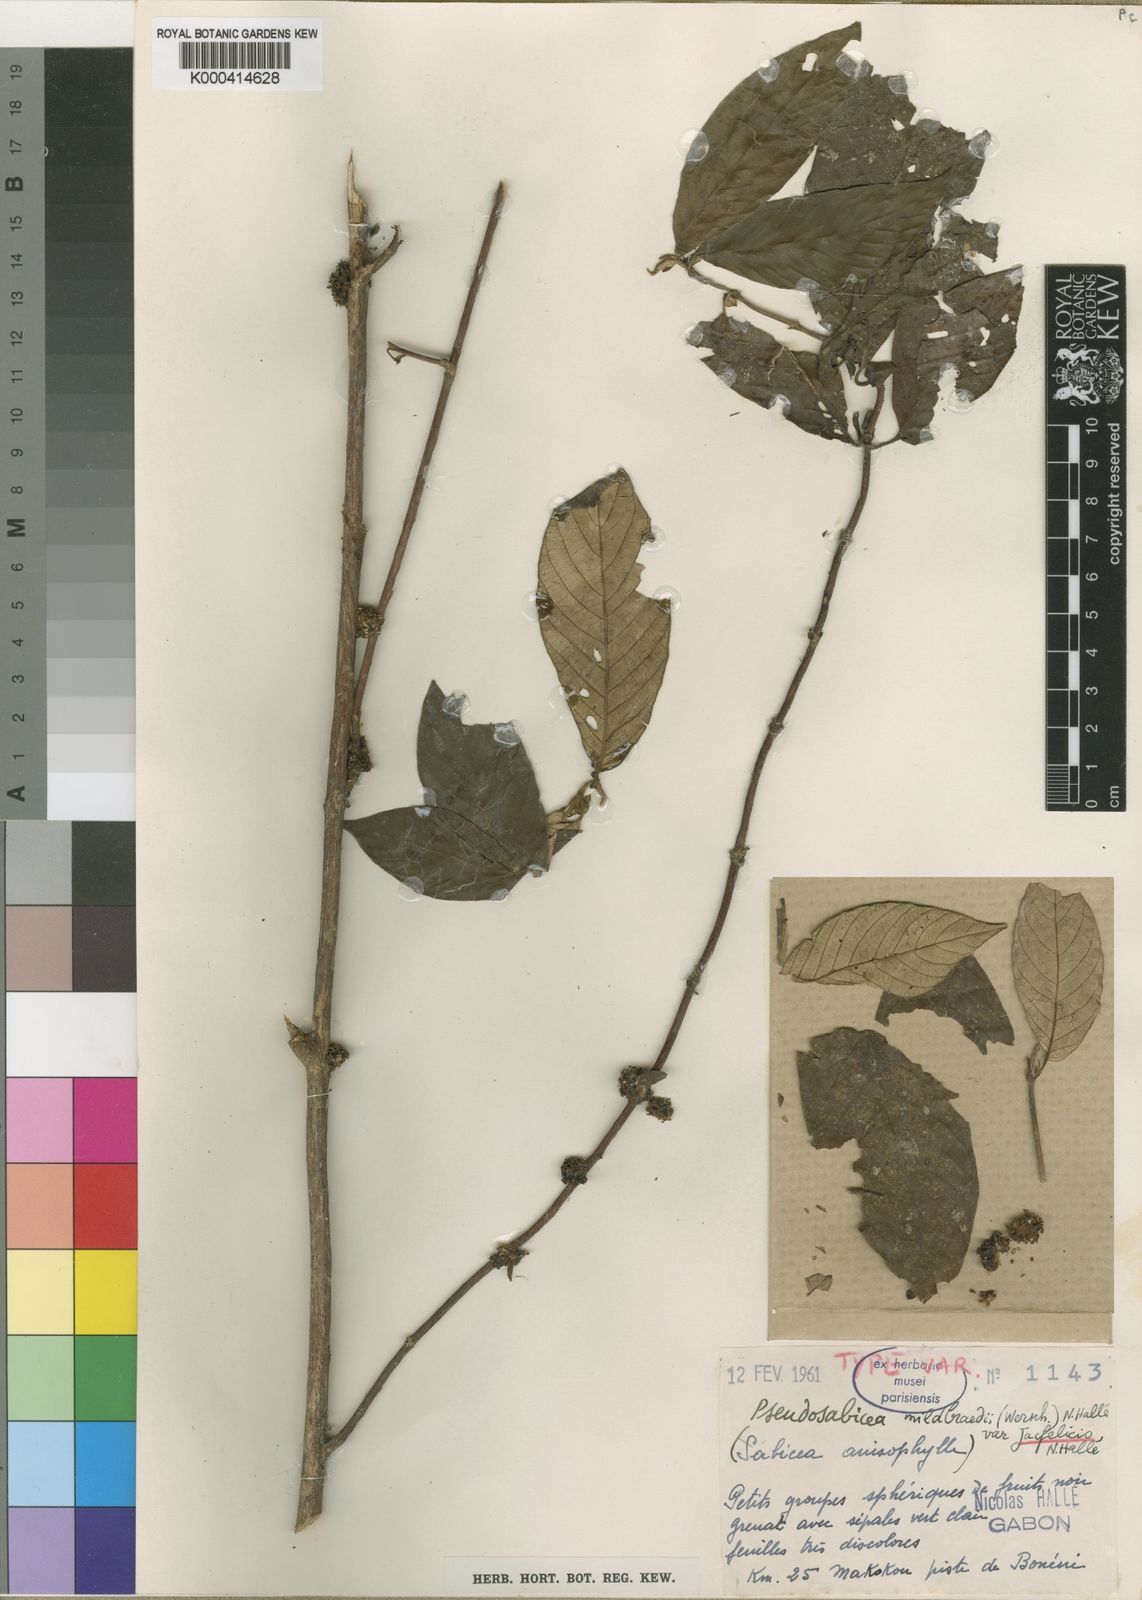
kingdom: Plantae
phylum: Tracheophyta
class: Magnoliopsida
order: Gentianales
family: Rubiaceae
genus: Sabicea
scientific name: Sabicea
